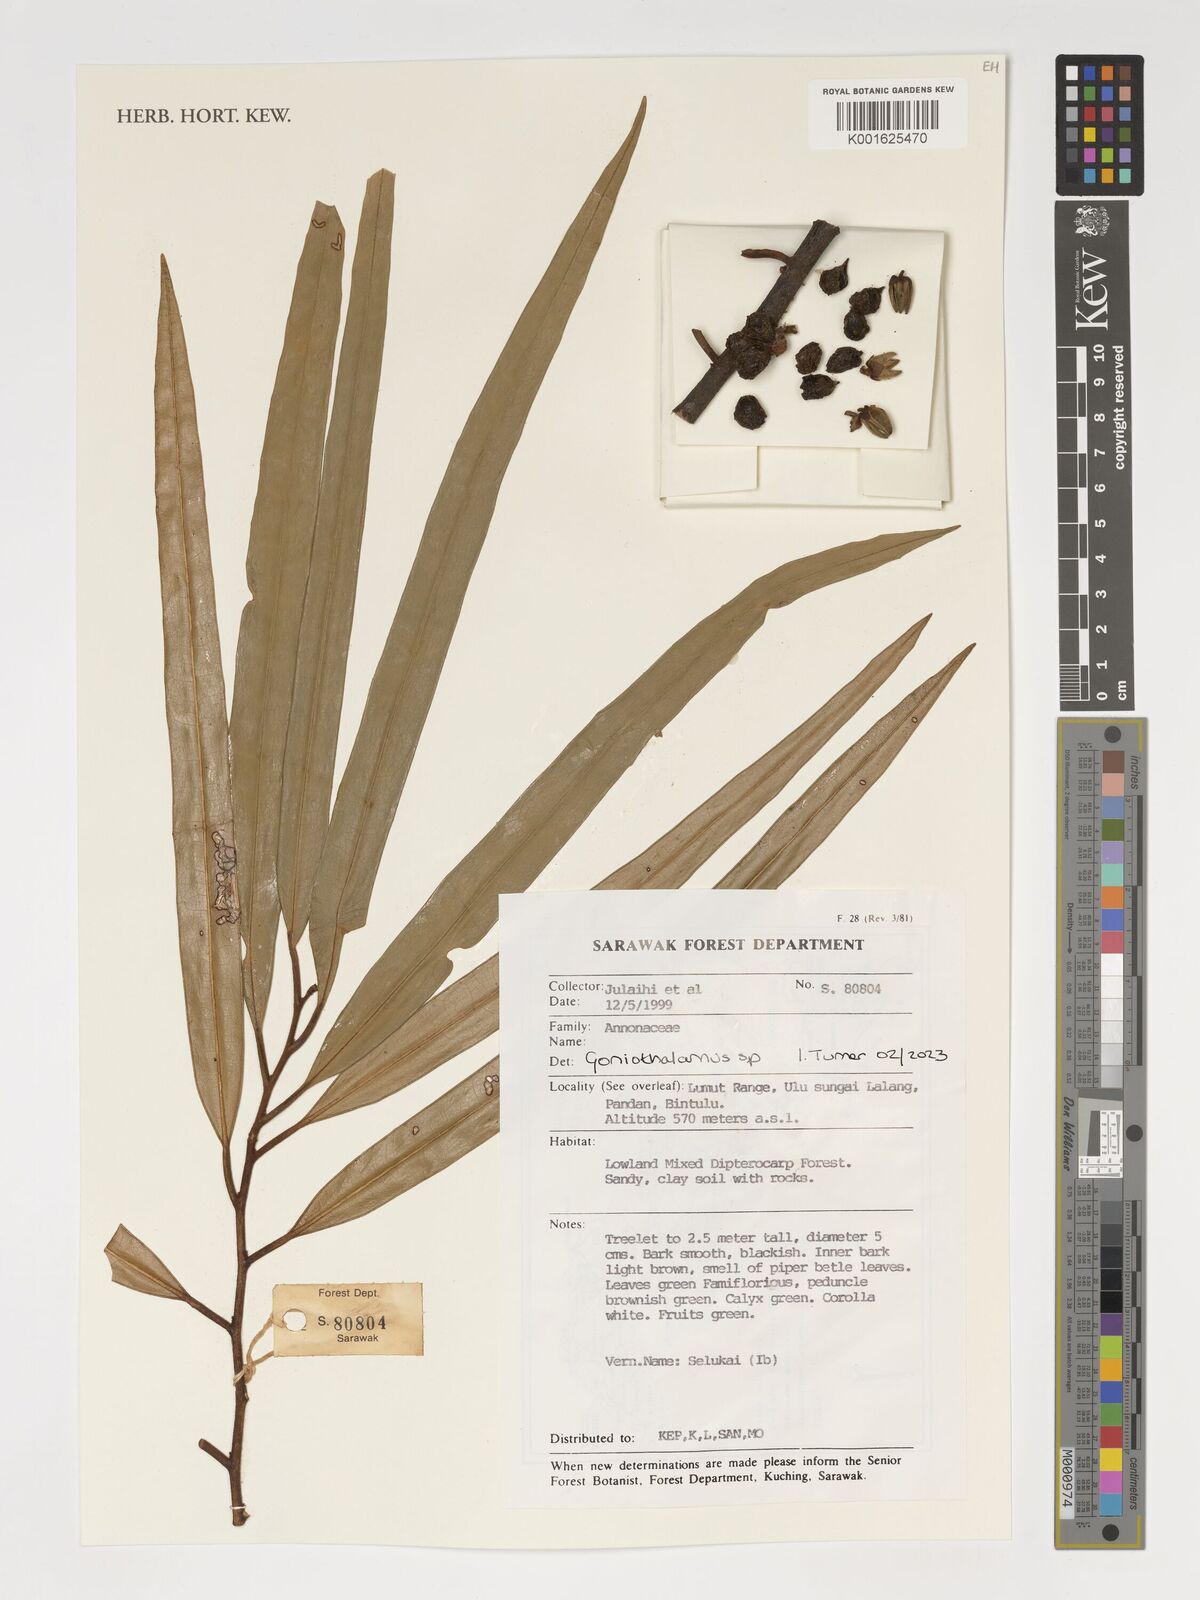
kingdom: Plantae
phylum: Tracheophyta
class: Magnoliopsida
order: Magnoliales
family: Annonaceae
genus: Goniothalamus
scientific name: Goniothalamus
